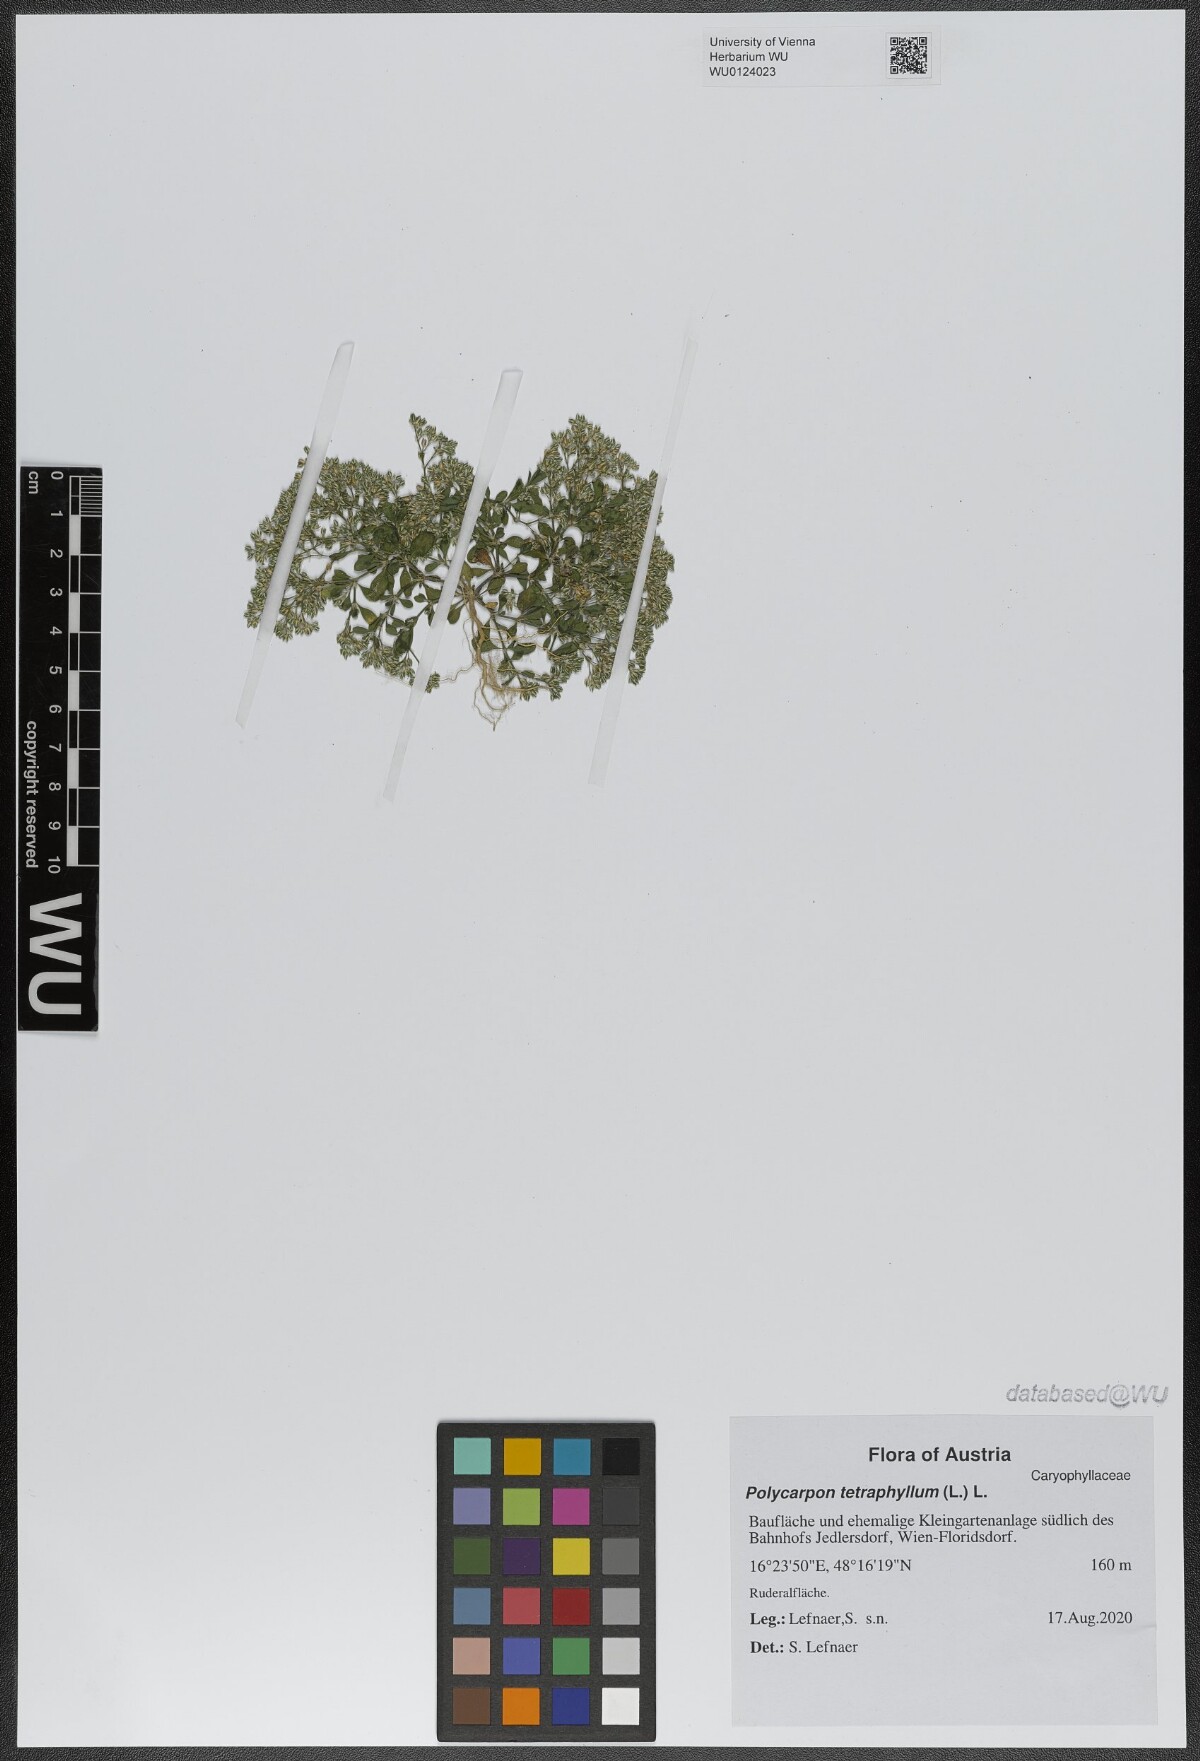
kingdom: Plantae
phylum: Tracheophyta
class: Magnoliopsida
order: Caryophyllales
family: Caryophyllaceae
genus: Polycarpon
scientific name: Polycarpon tetraphyllum
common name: Four-leaved all-seed
